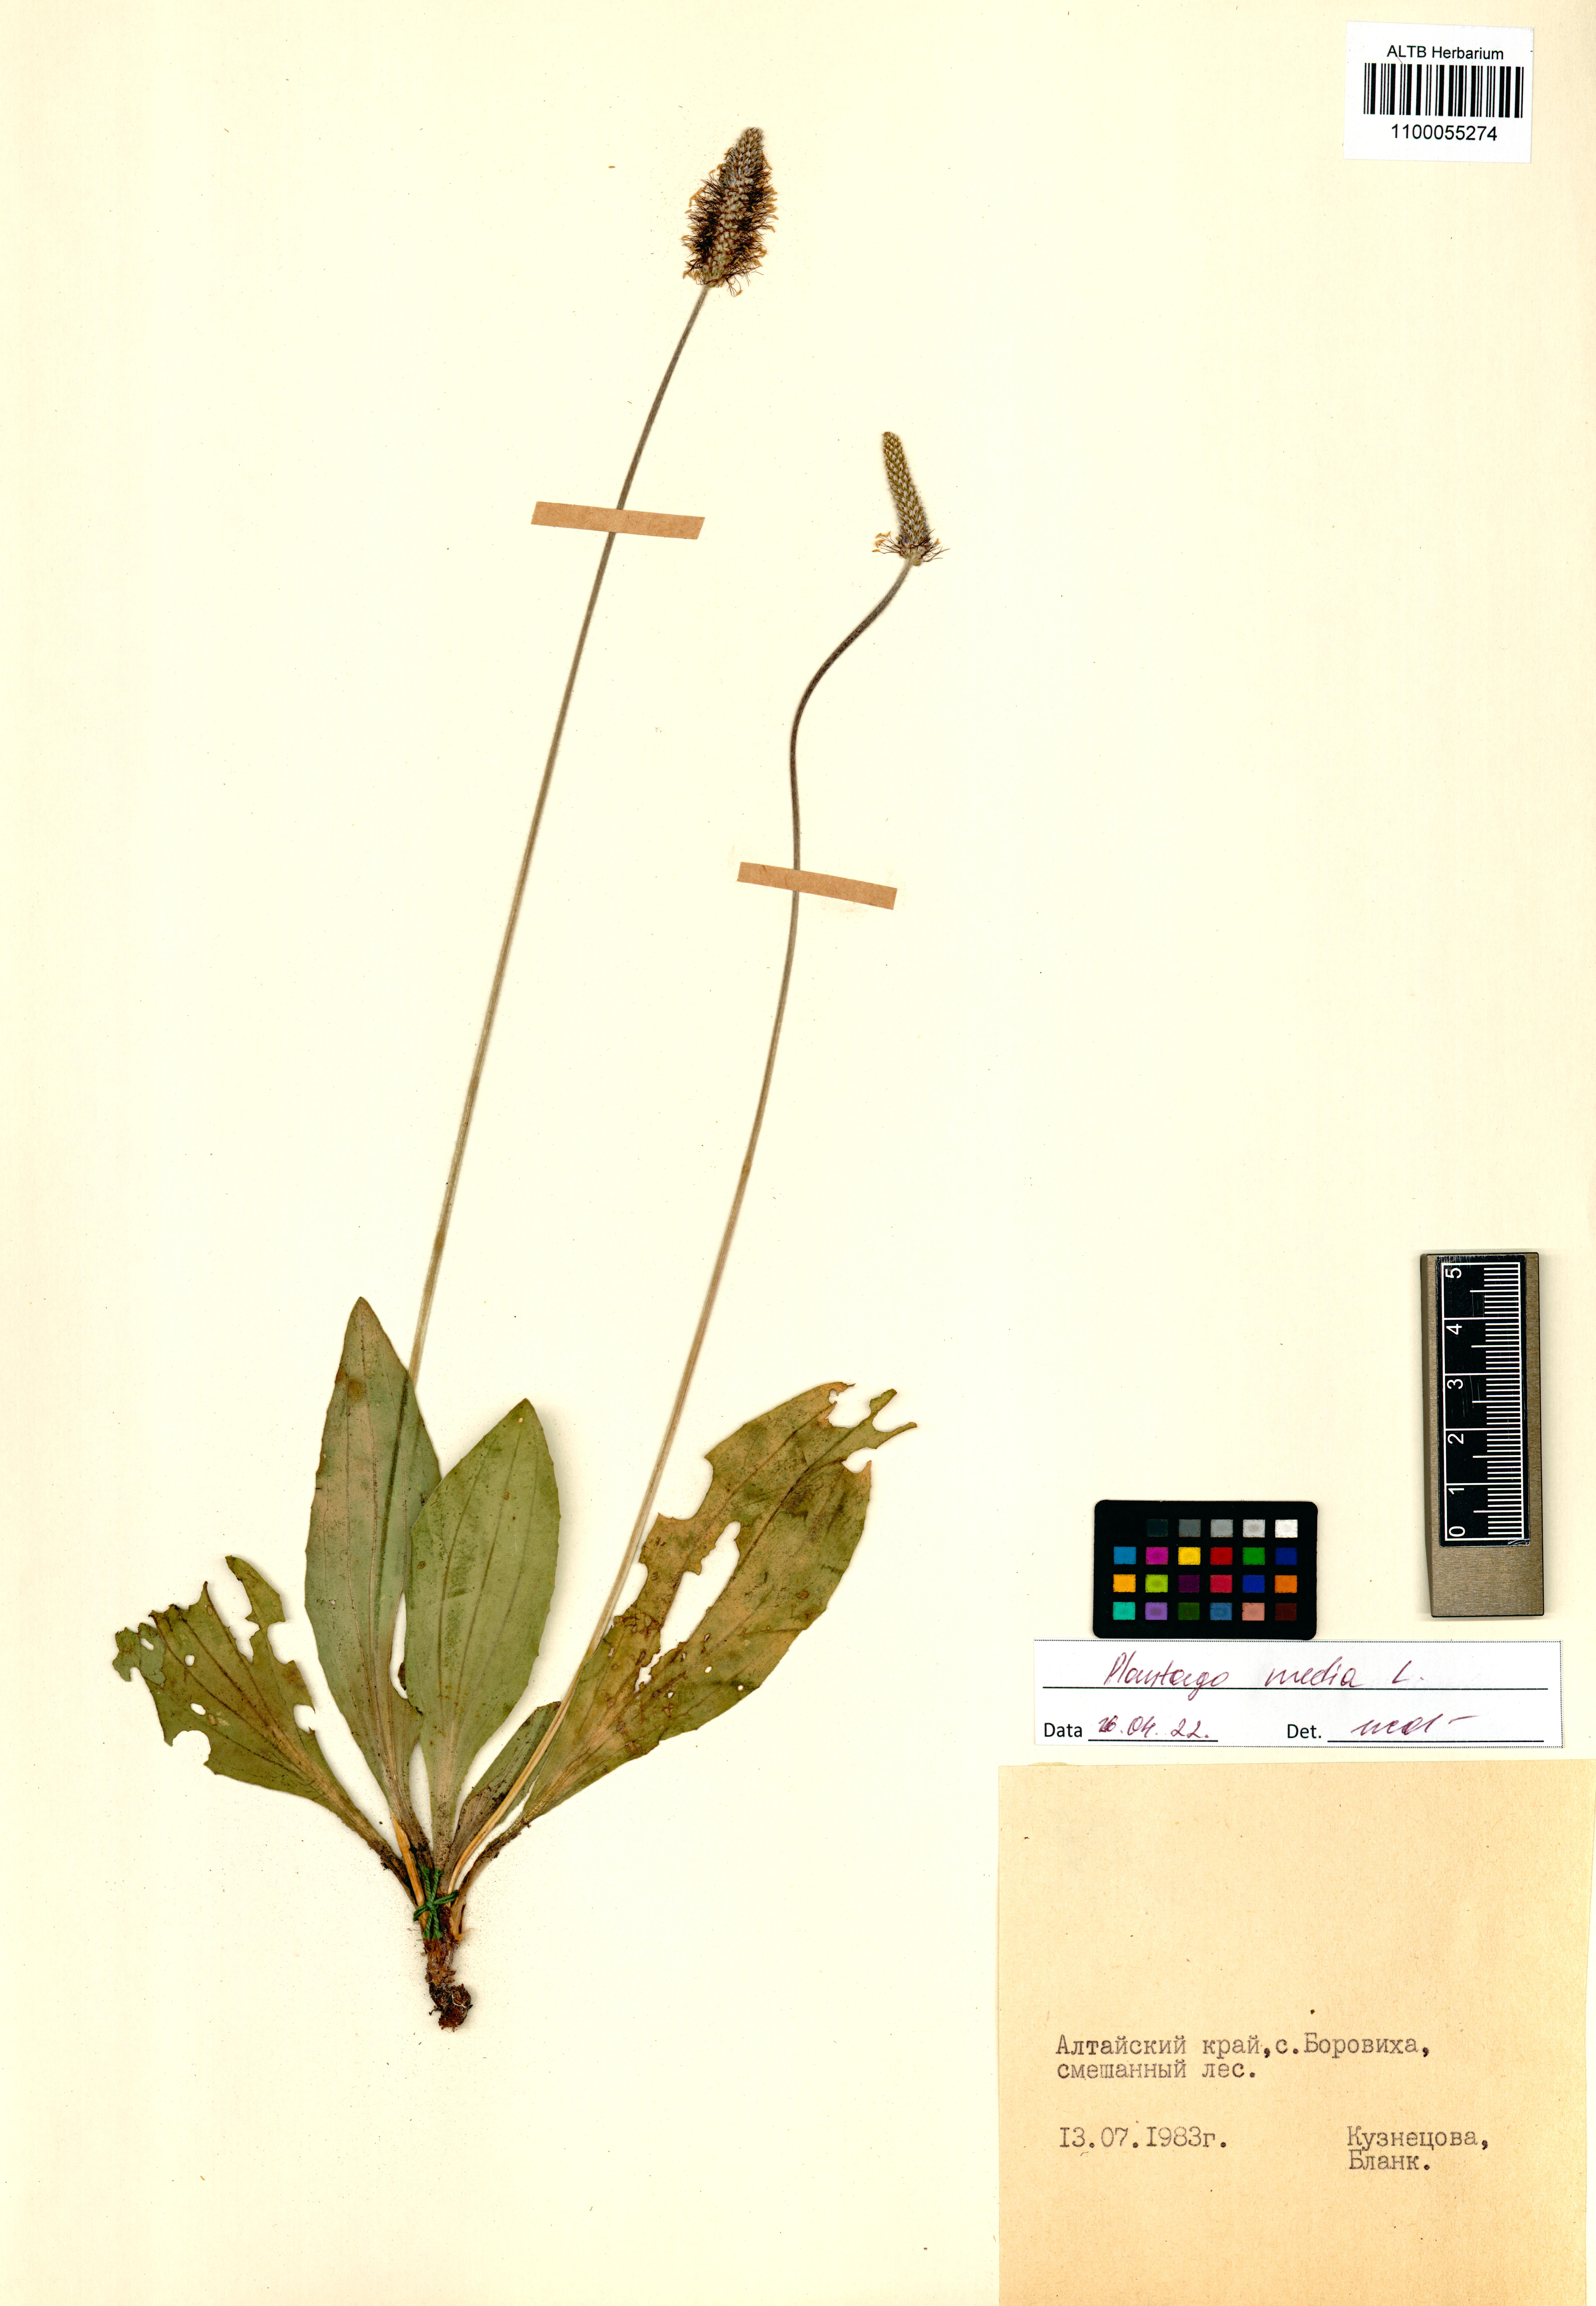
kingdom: Plantae
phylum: Tracheophyta
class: Magnoliopsida
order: Lamiales
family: Plantaginaceae
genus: Plantago
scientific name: Plantago media
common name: Hoary plantain
